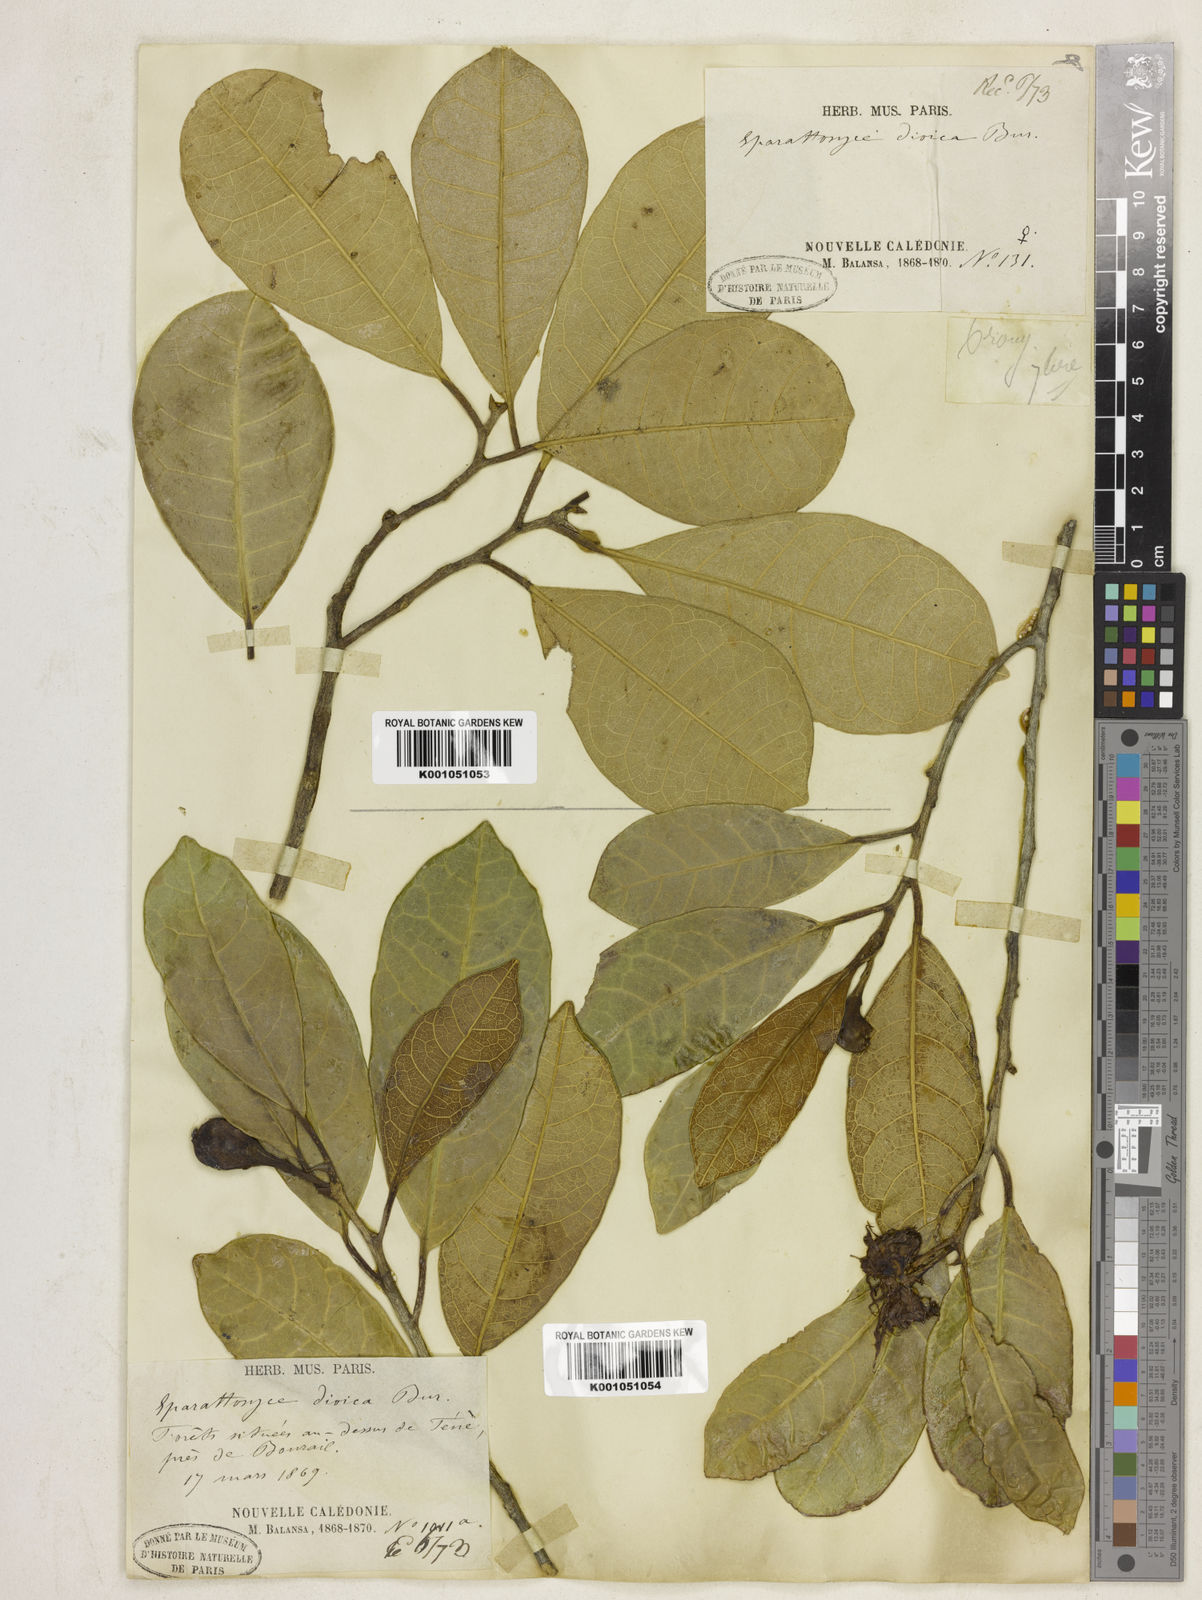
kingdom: Plantae
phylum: Tracheophyta
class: Magnoliopsida
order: Rosales
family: Moraceae
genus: Sparattosyce
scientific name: Sparattosyce dioica
